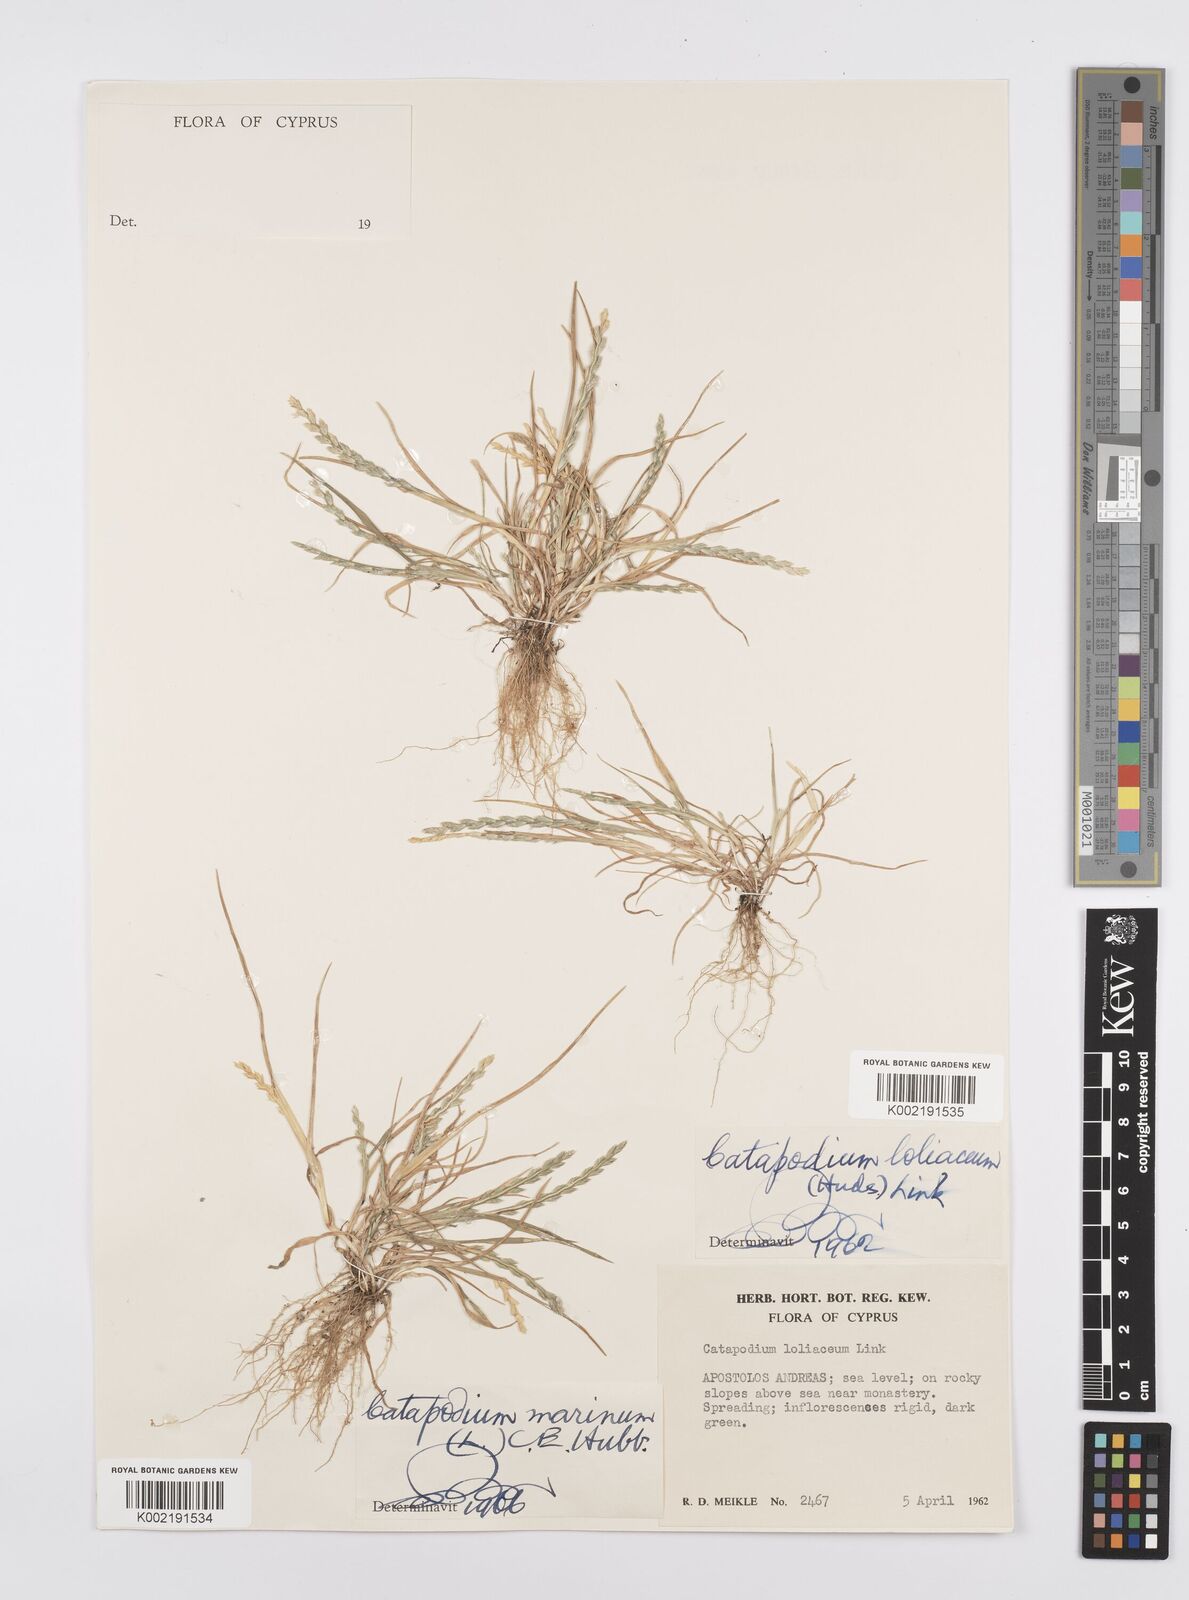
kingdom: Plantae
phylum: Tracheophyta
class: Liliopsida
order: Poales
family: Poaceae
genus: Catapodium
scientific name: Catapodium marinum
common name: Sea fern-grass
